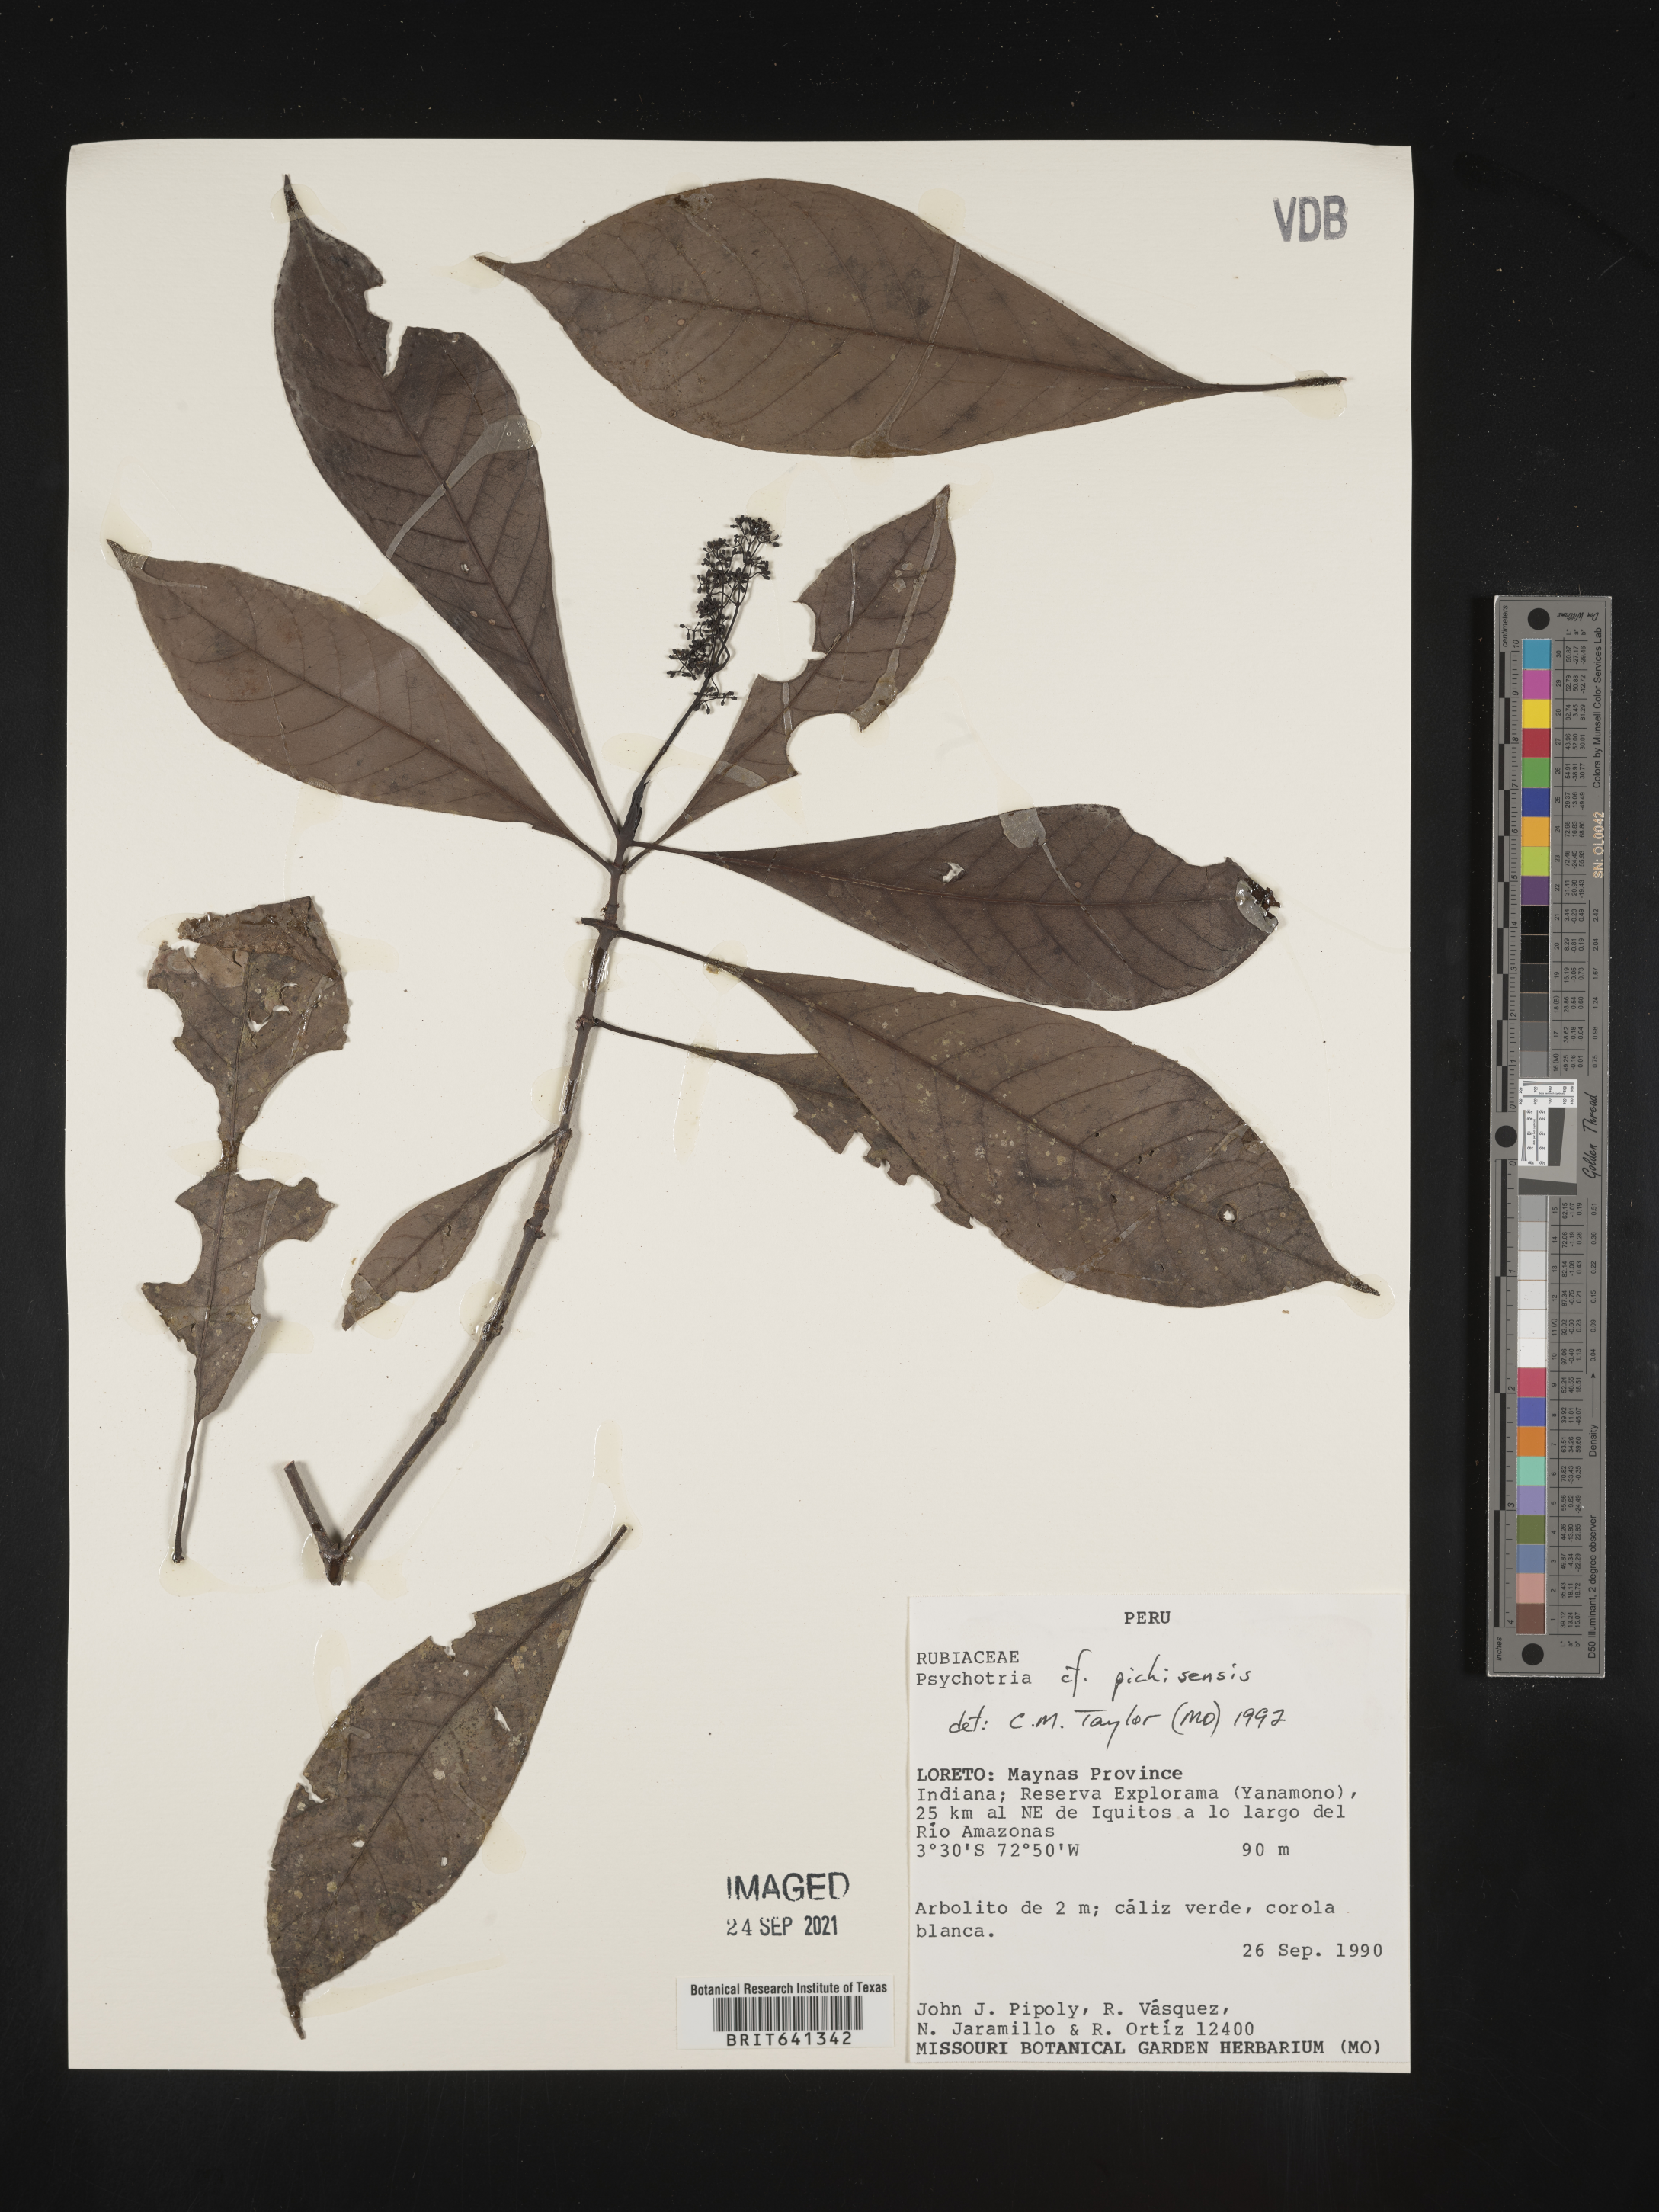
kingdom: Plantae
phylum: Tracheophyta
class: Magnoliopsida
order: Gentianales
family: Rubiaceae
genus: Psychotria
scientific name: Psychotria
